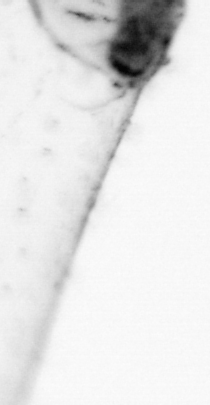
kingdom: Animalia
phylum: Chaetognatha
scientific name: Chaetognatha
